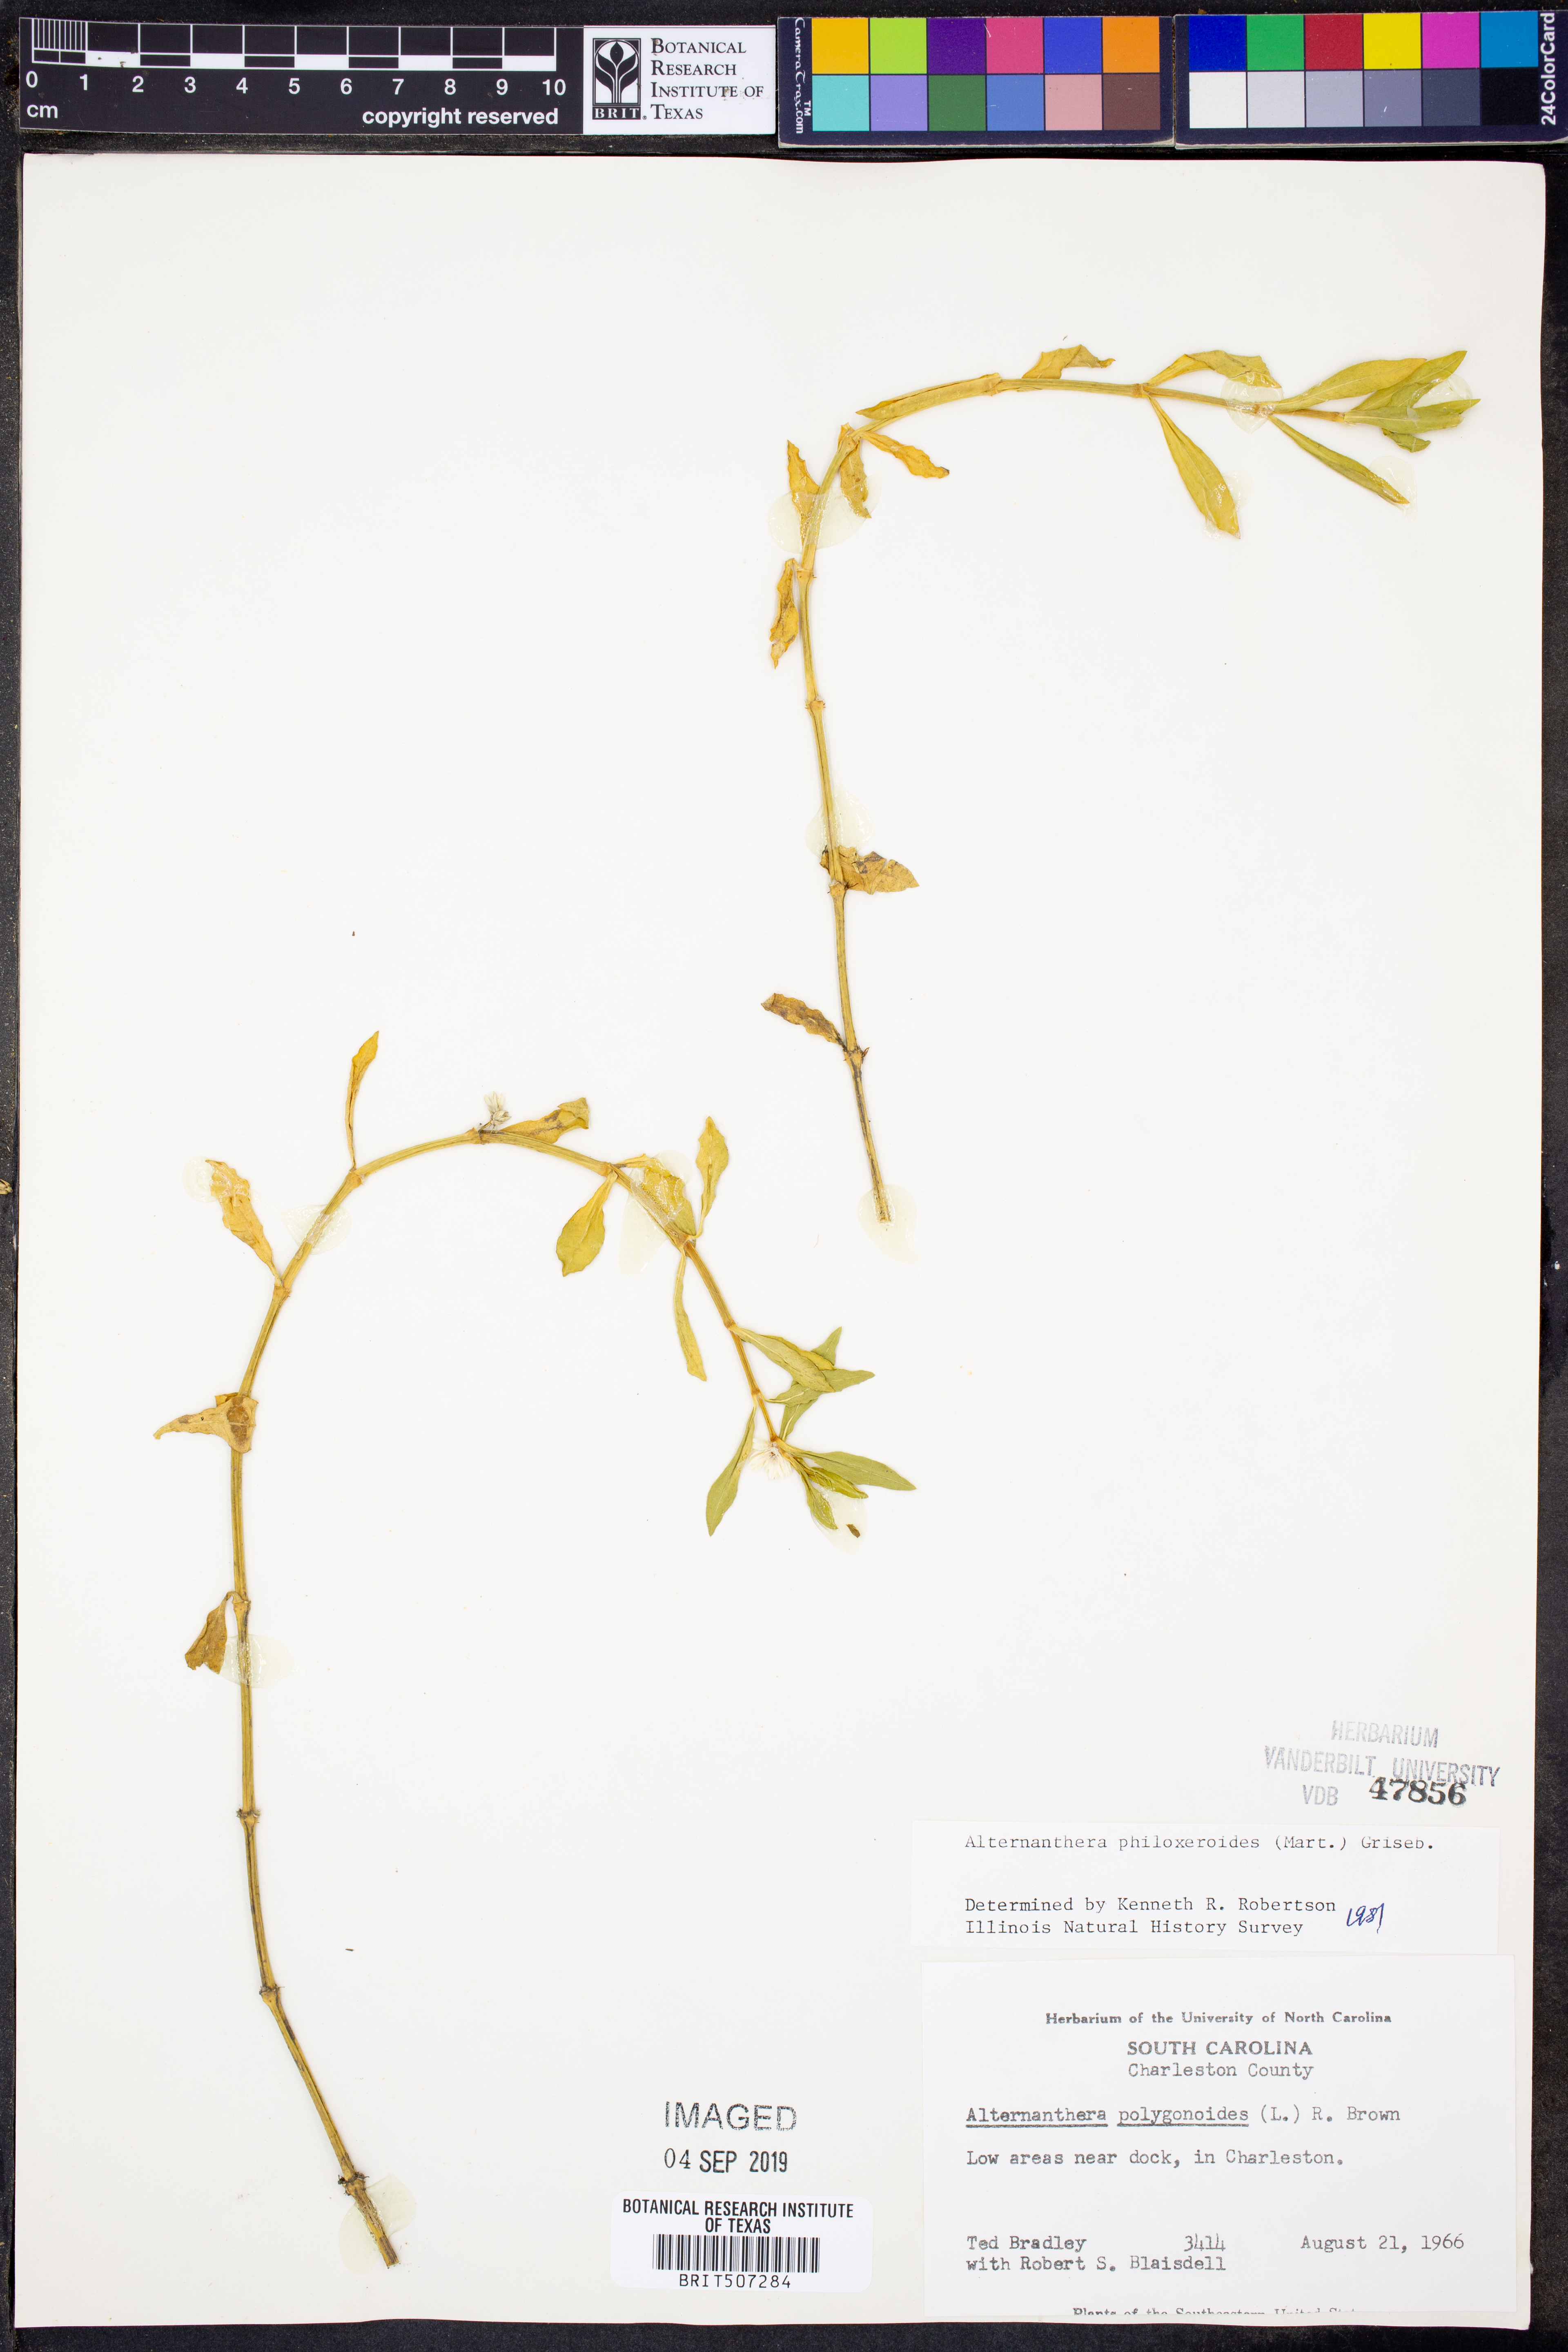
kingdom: Plantae
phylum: Tracheophyta
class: Magnoliopsida
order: Caryophyllales
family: Amaranthaceae
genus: Alternanthera
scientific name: Alternanthera philoxeroides
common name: Alligatorweed
